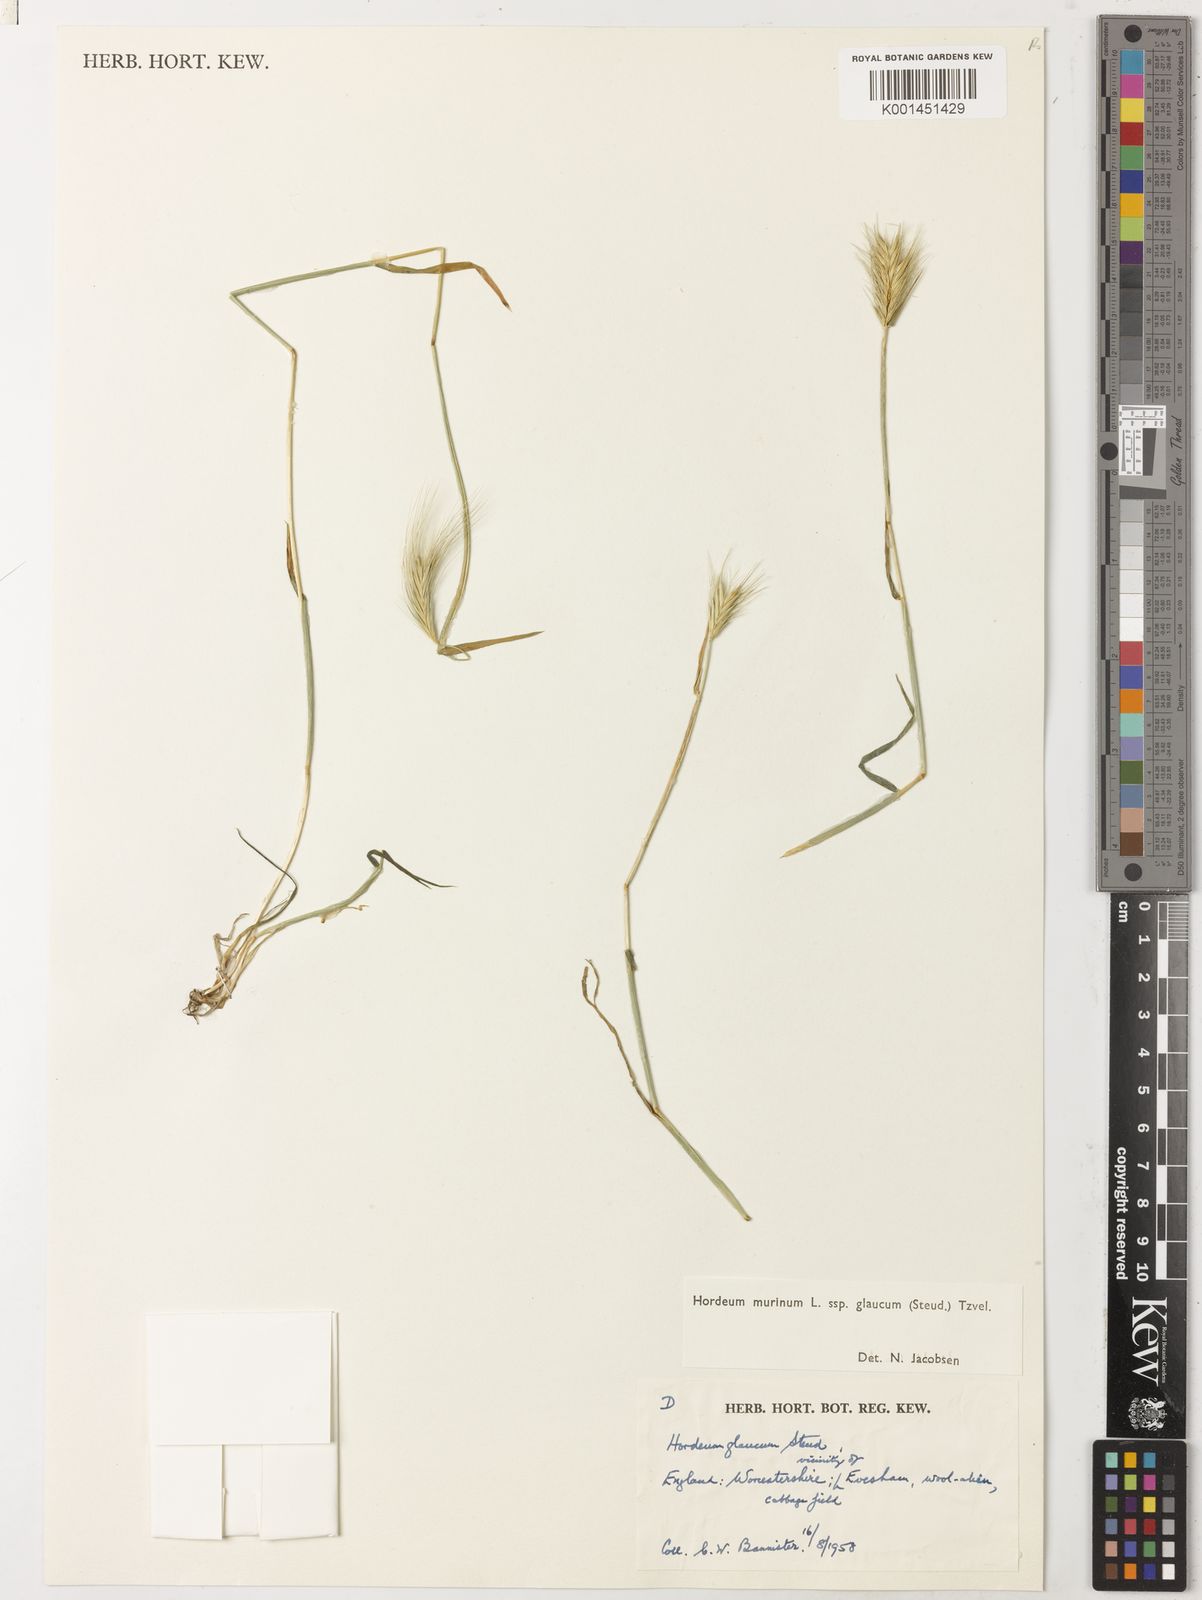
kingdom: Plantae
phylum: Tracheophyta
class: Liliopsida
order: Poales
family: Poaceae
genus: Hordeum
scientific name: Hordeum murinum
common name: Wall barley
